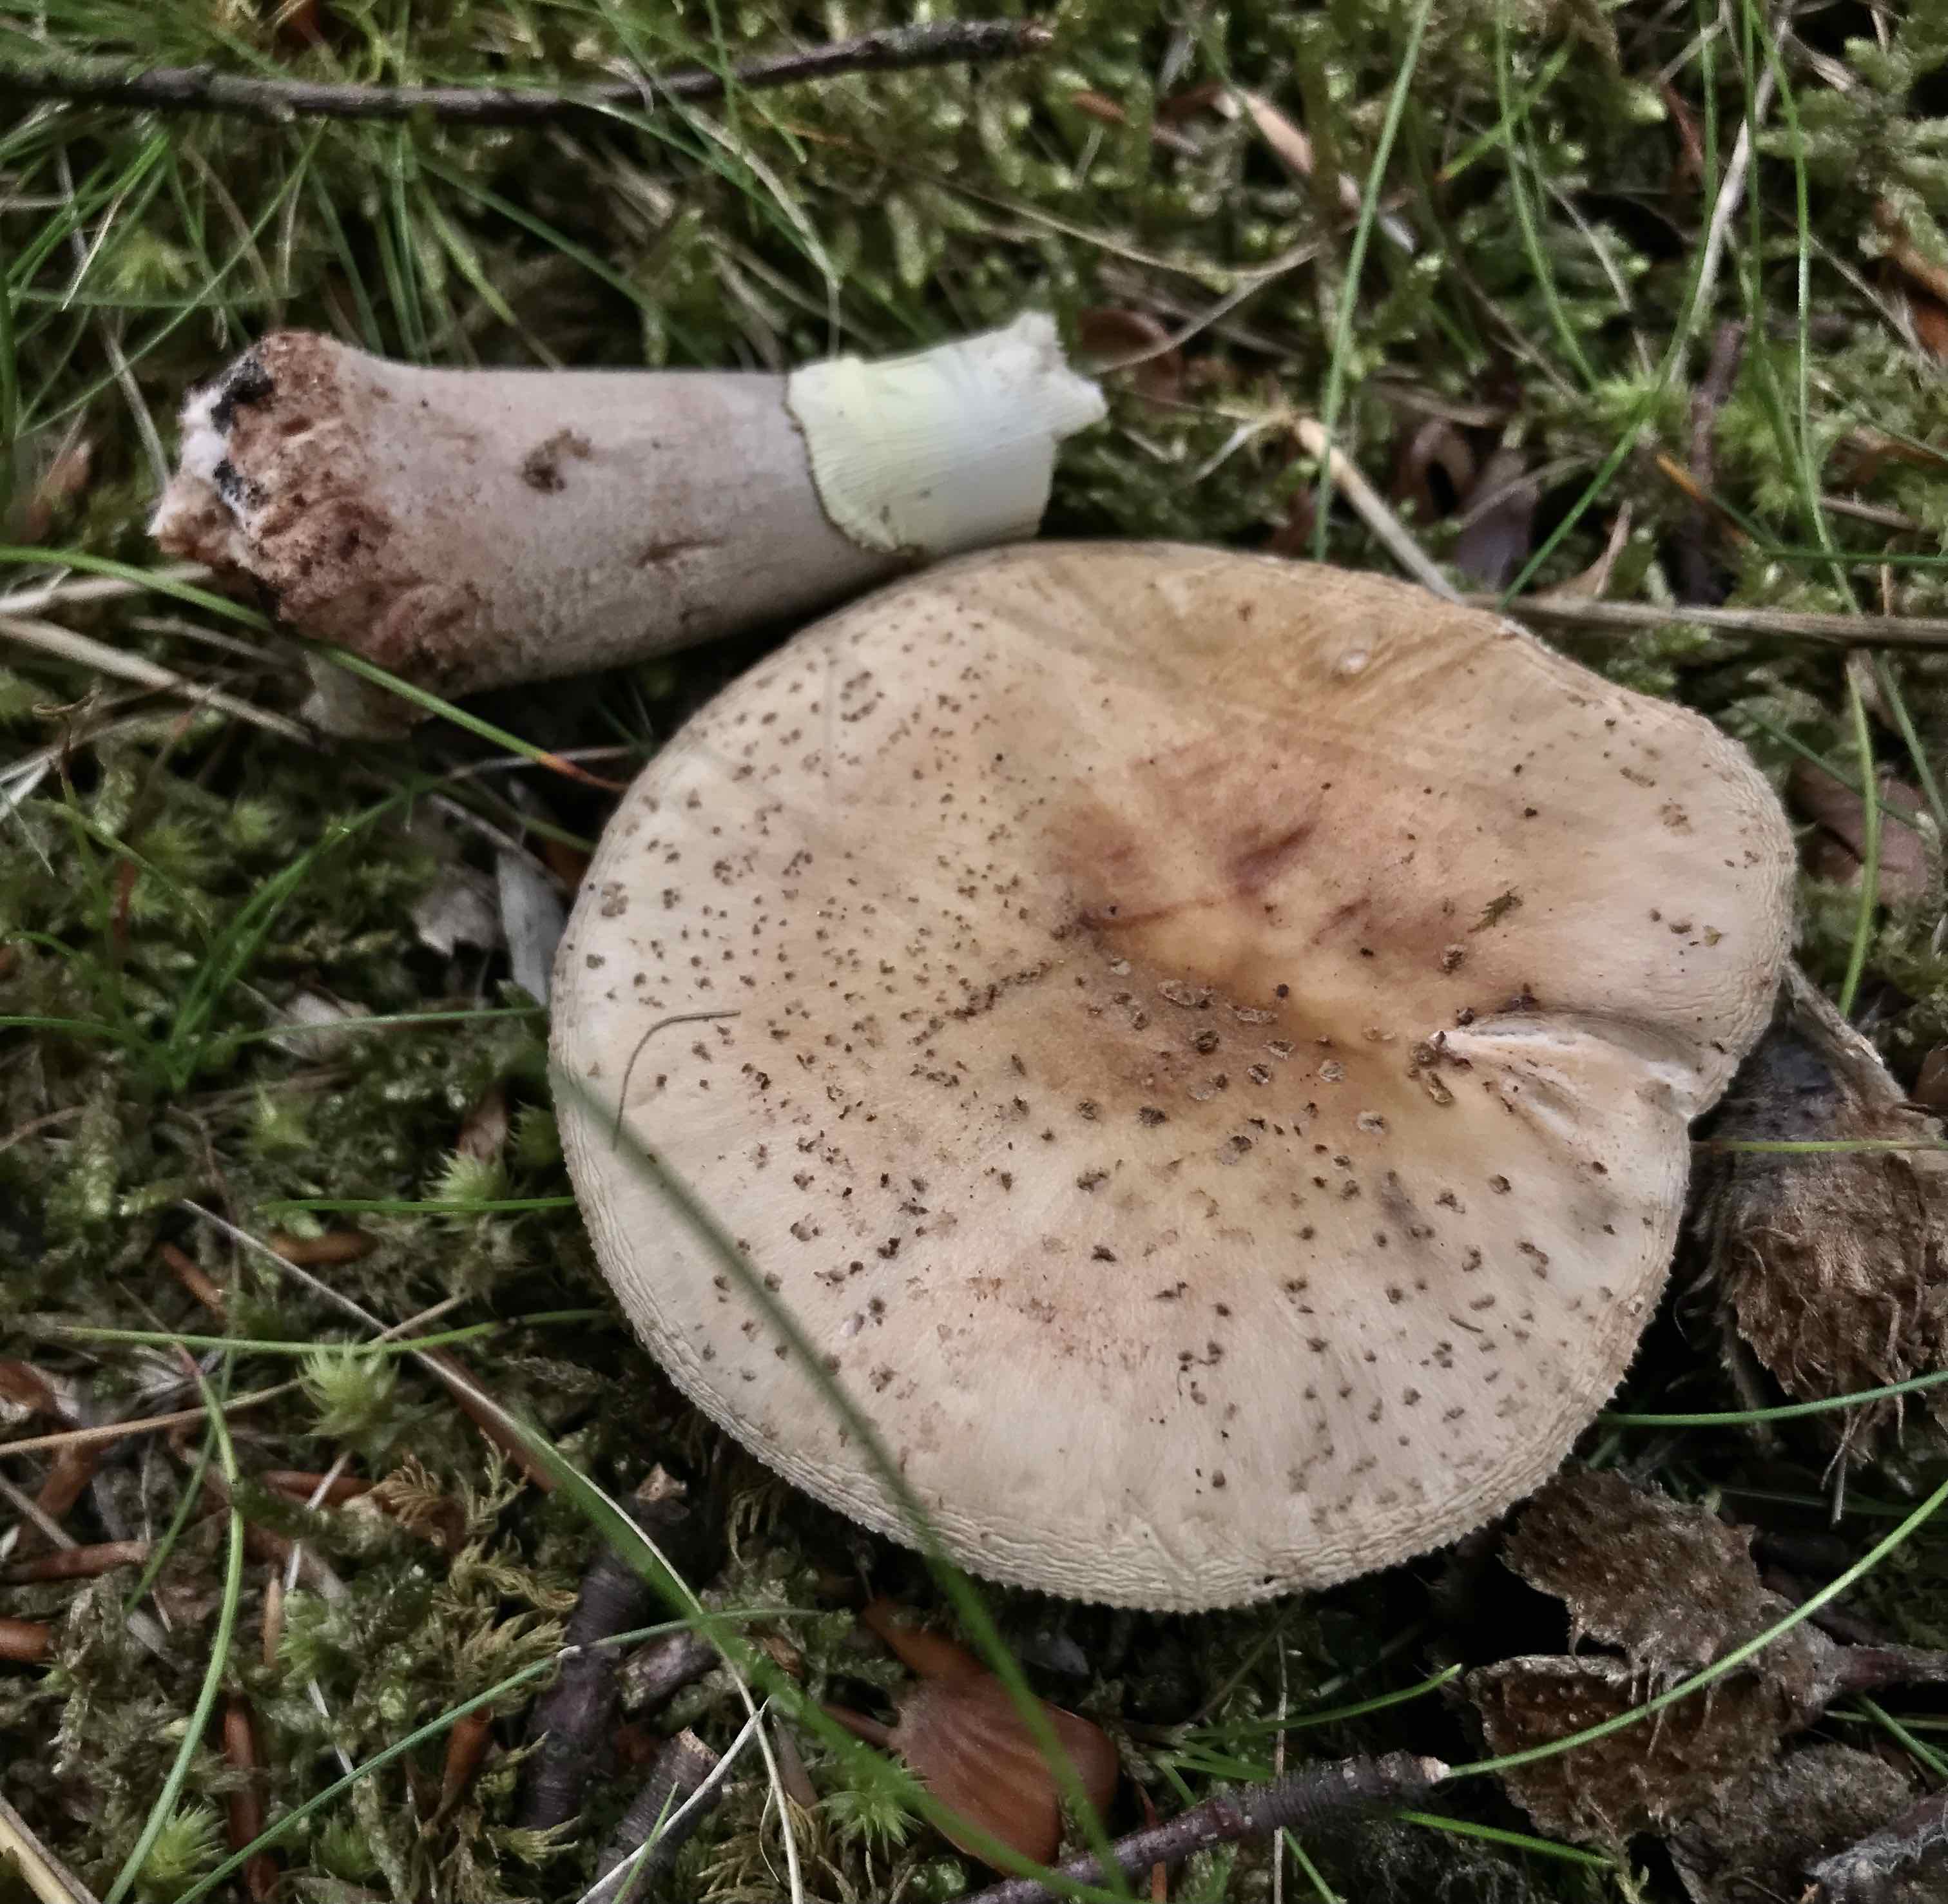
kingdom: Fungi
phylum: Basidiomycota
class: Agaricomycetes
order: Agaricales
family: Amanitaceae
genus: Amanita
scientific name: Amanita rubescens
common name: rødmende fluesvamp
